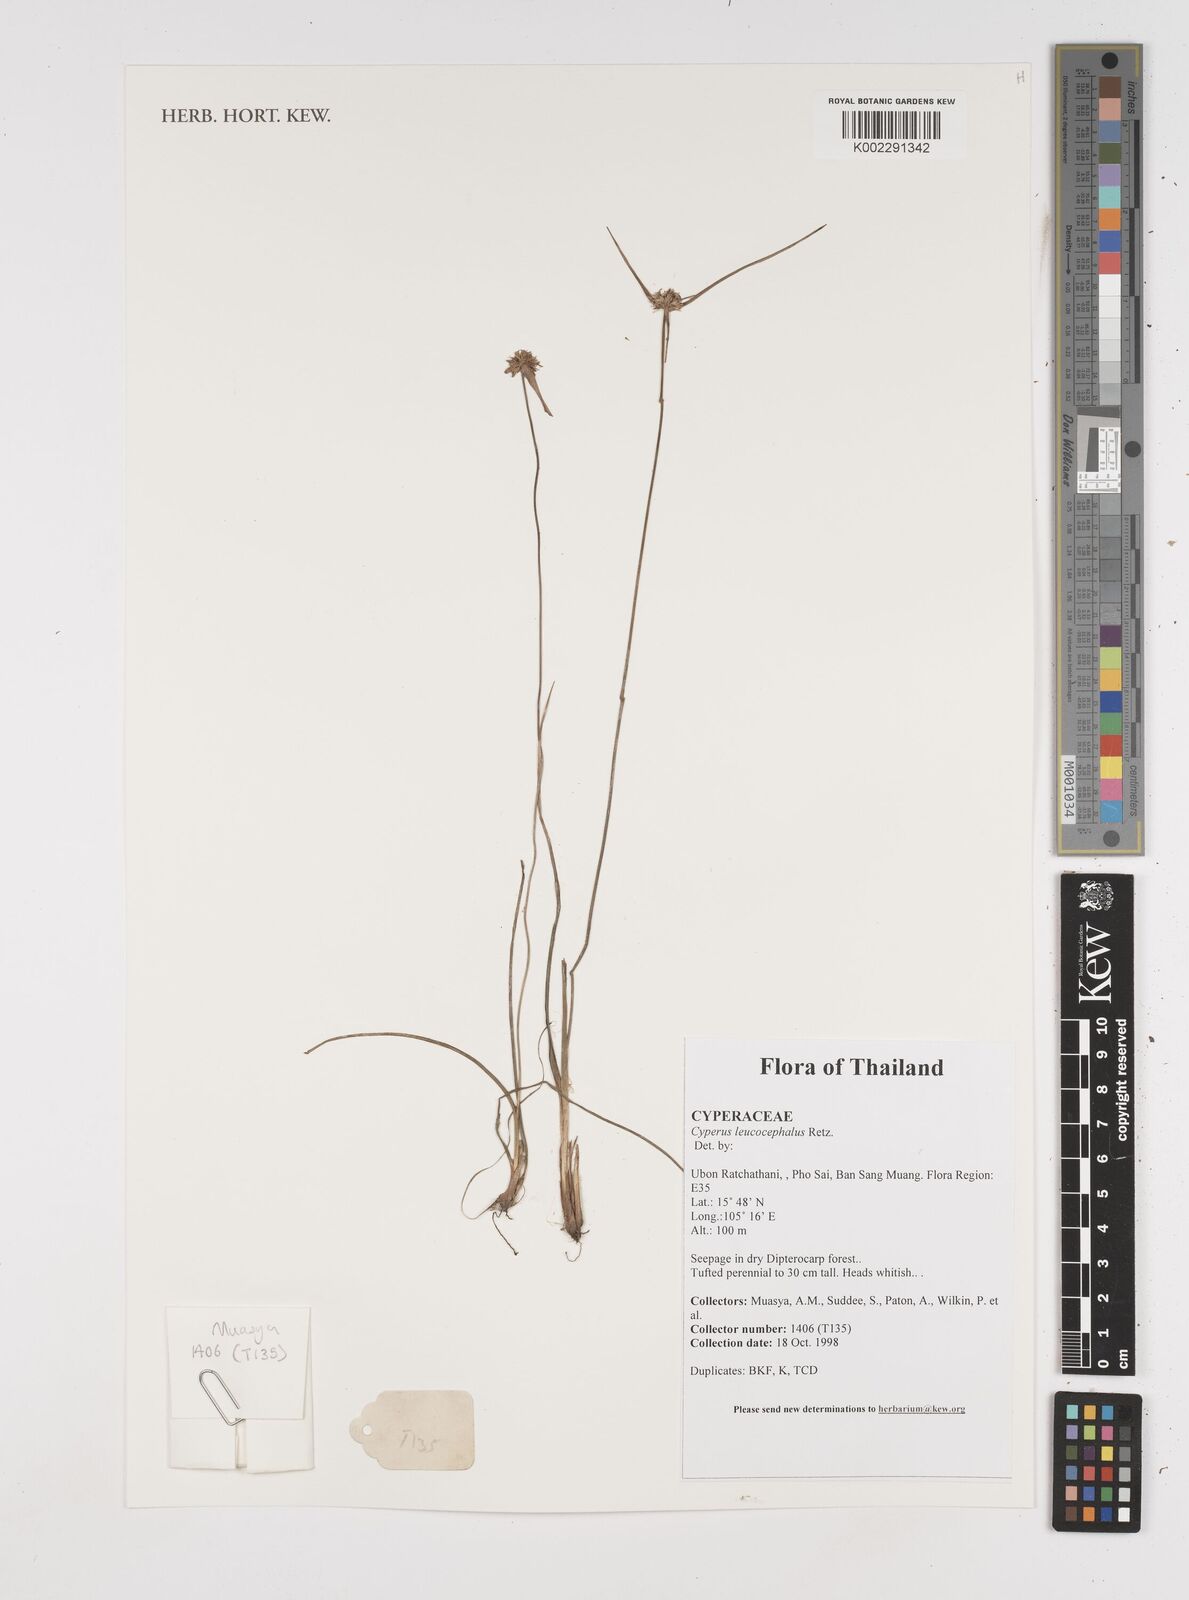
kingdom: Plantae
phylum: Tracheophyta
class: Liliopsida
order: Poales
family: Cyperaceae
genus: Cyperus
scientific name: Cyperus leucocephalus
